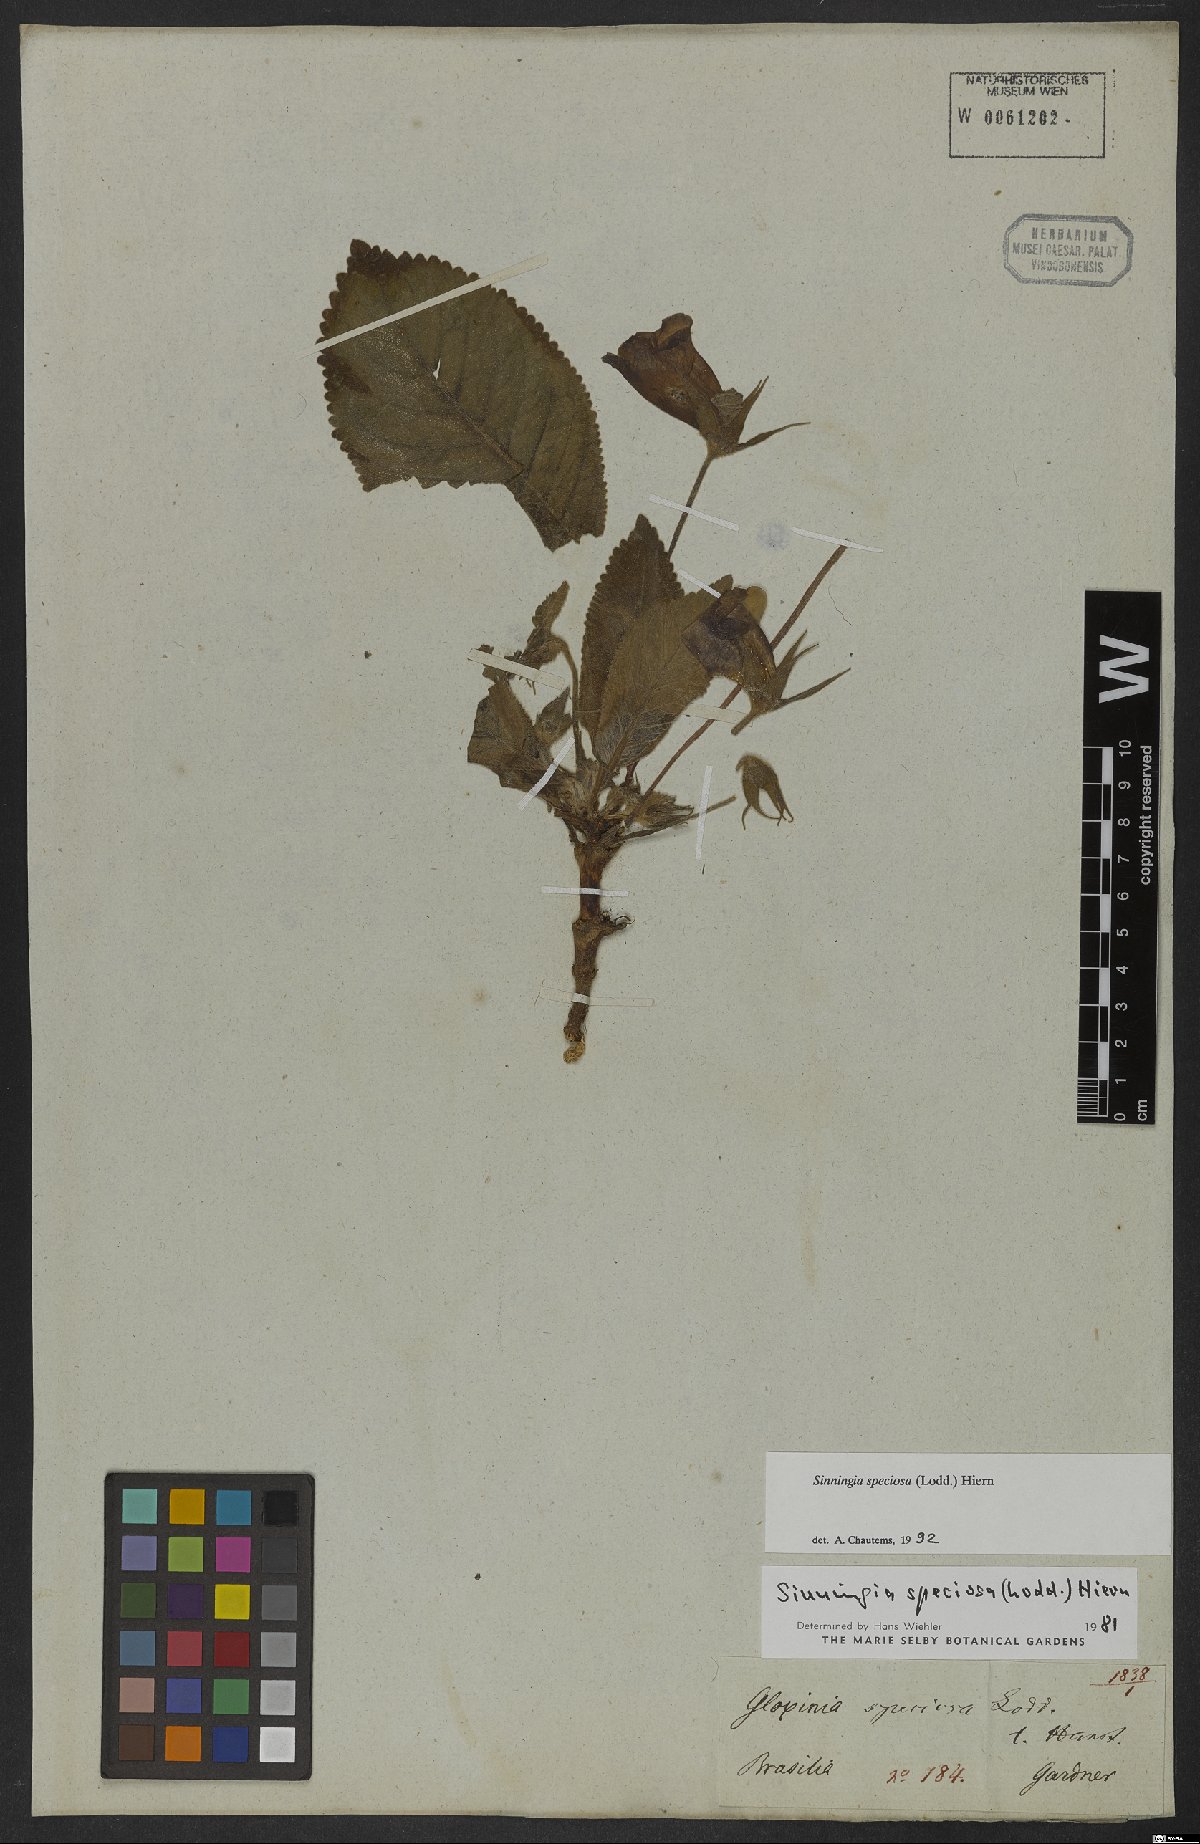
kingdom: Plantae
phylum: Tracheophyta
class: Magnoliopsida
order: Lamiales
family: Gesneriaceae
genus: Sinningia
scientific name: Sinningia speciosa
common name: Brazilian gloxinia
